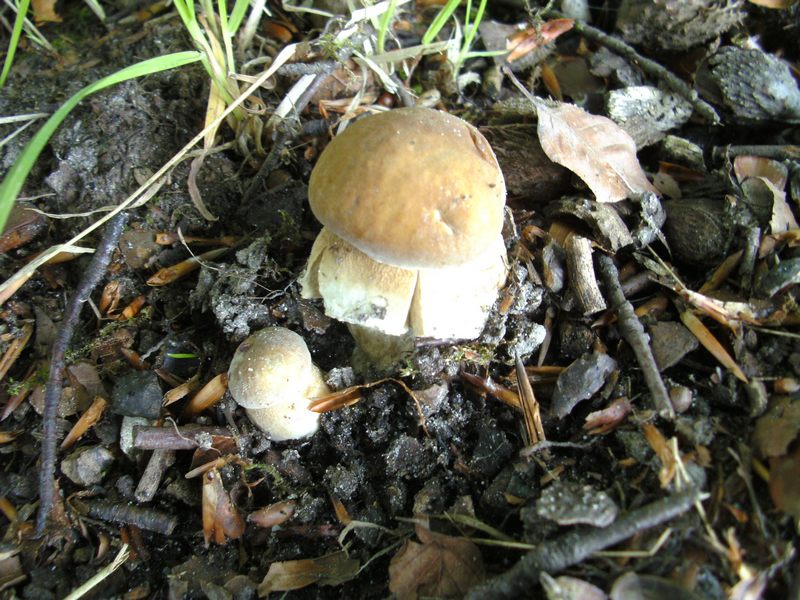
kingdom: Fungi
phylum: Basidiomycota
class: Agaricomycetes
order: Boletales
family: Boletaceae
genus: Boletus
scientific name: Boletus reticulatus
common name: sommer-rørhat
